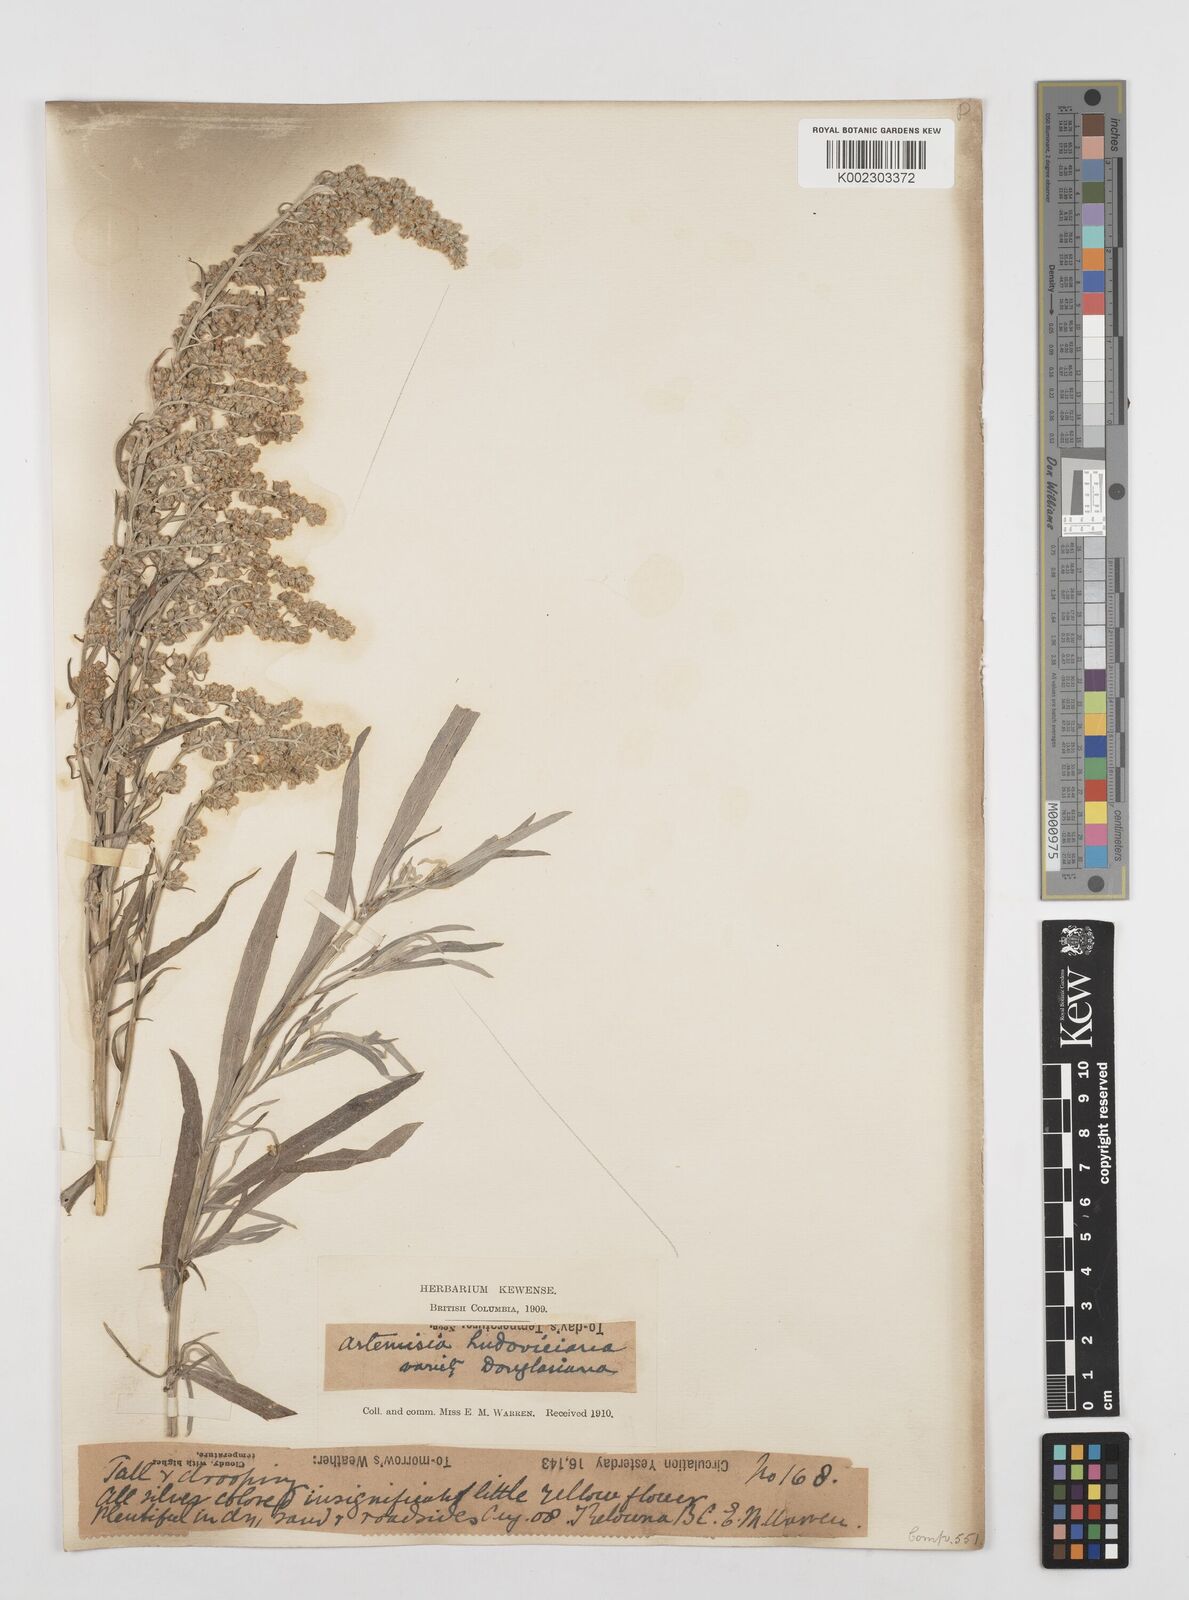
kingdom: Plantae
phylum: Tracheophyta
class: Magnoliopsida
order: Asterales
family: Asteraceae
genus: Artemisia
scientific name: Artemisia
